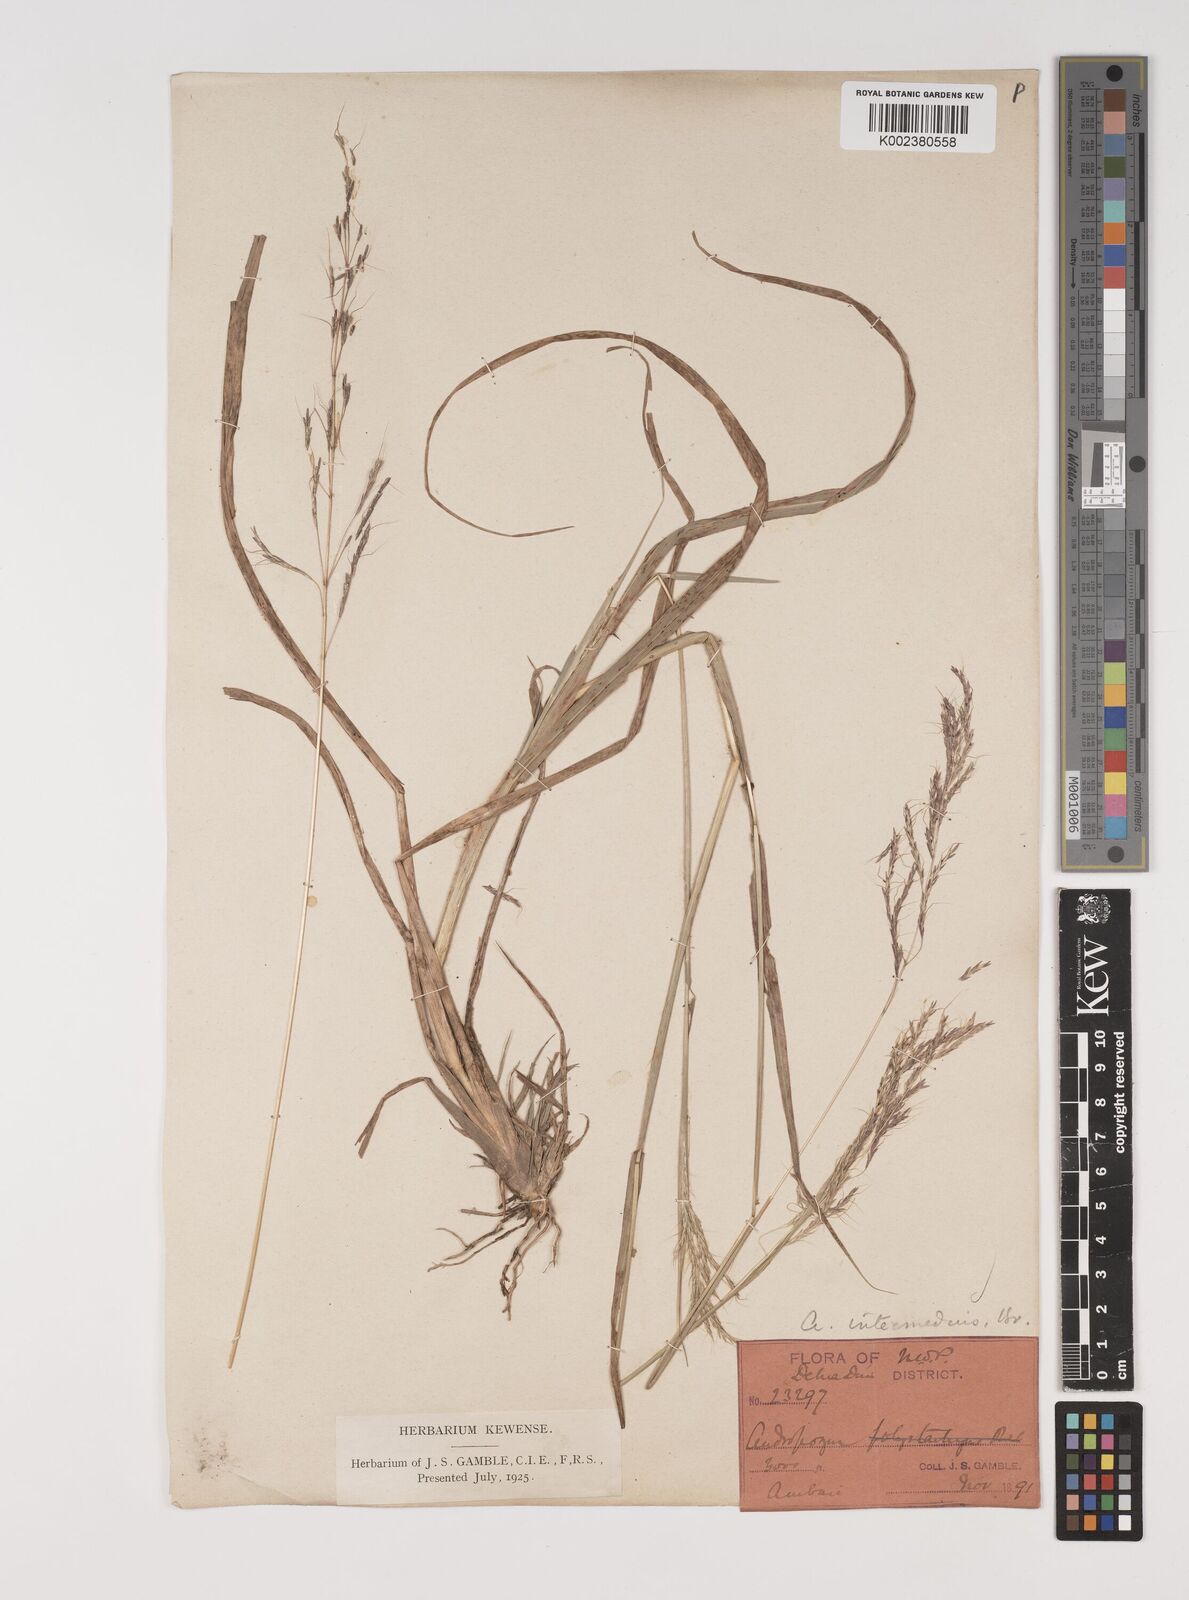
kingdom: Plantae
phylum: Tracheophyta
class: Liliopsida
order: Poales
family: Poaceae
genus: Bothriochloa
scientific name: Bothriochloa bladhii
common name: Caucasian bluestem
